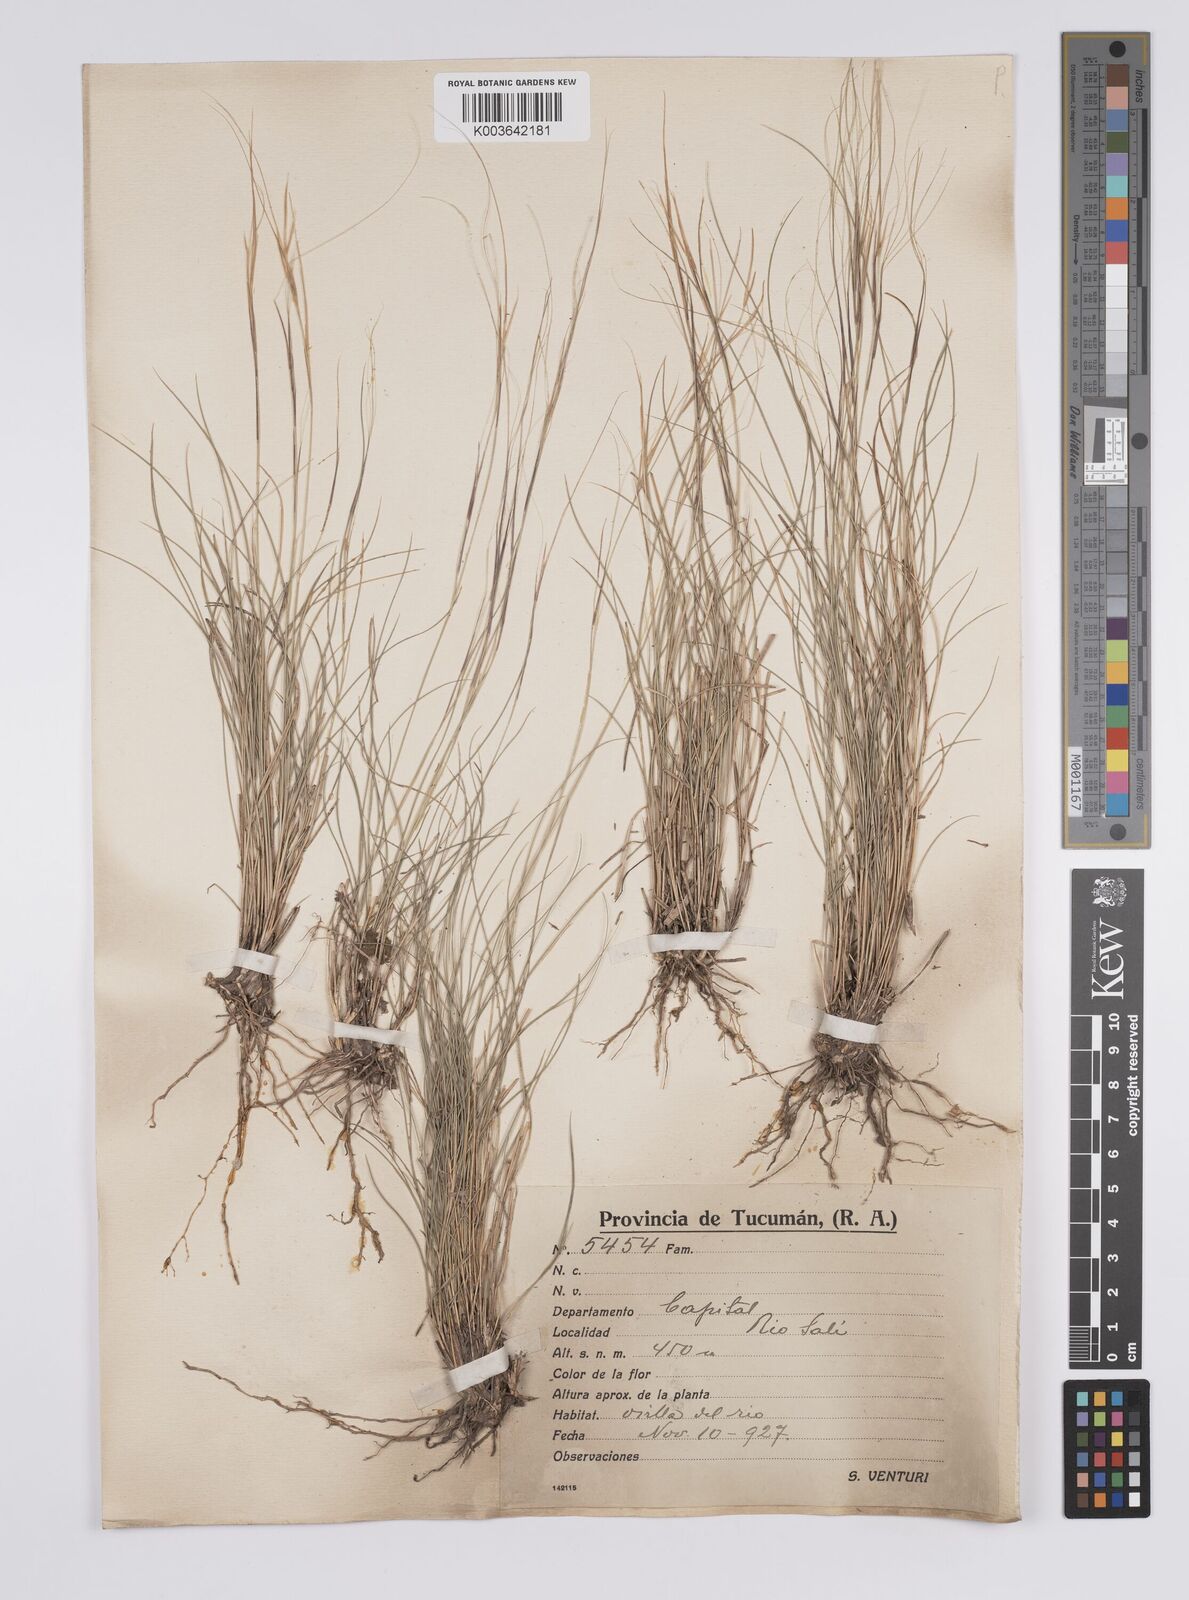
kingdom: Plantae
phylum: Tracheophyta
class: Liliopsida
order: Poales
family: Poaceae
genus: Aristida
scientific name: Aristida
